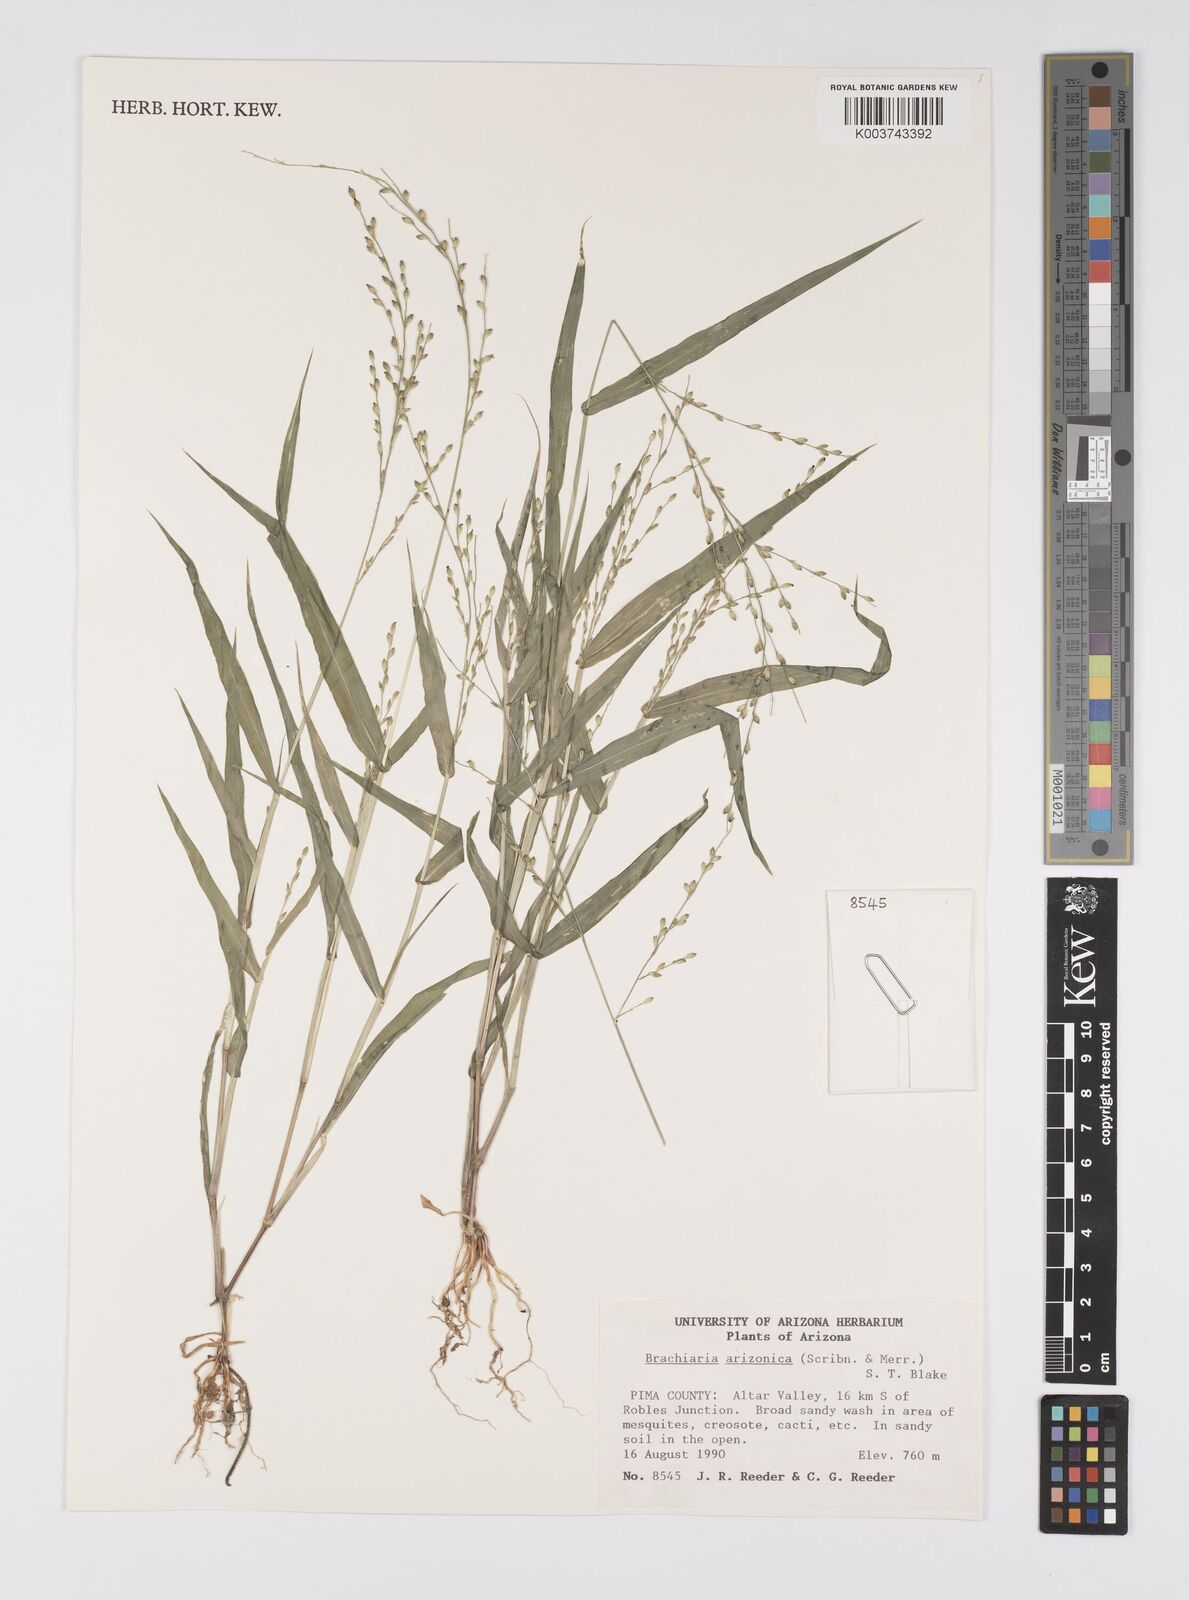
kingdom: Plantae
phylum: Tracheophyta
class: Liliopsida
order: Poales
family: Poaceae
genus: Urochloa
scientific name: Urochloa arizonica
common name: Arizona signal grass
